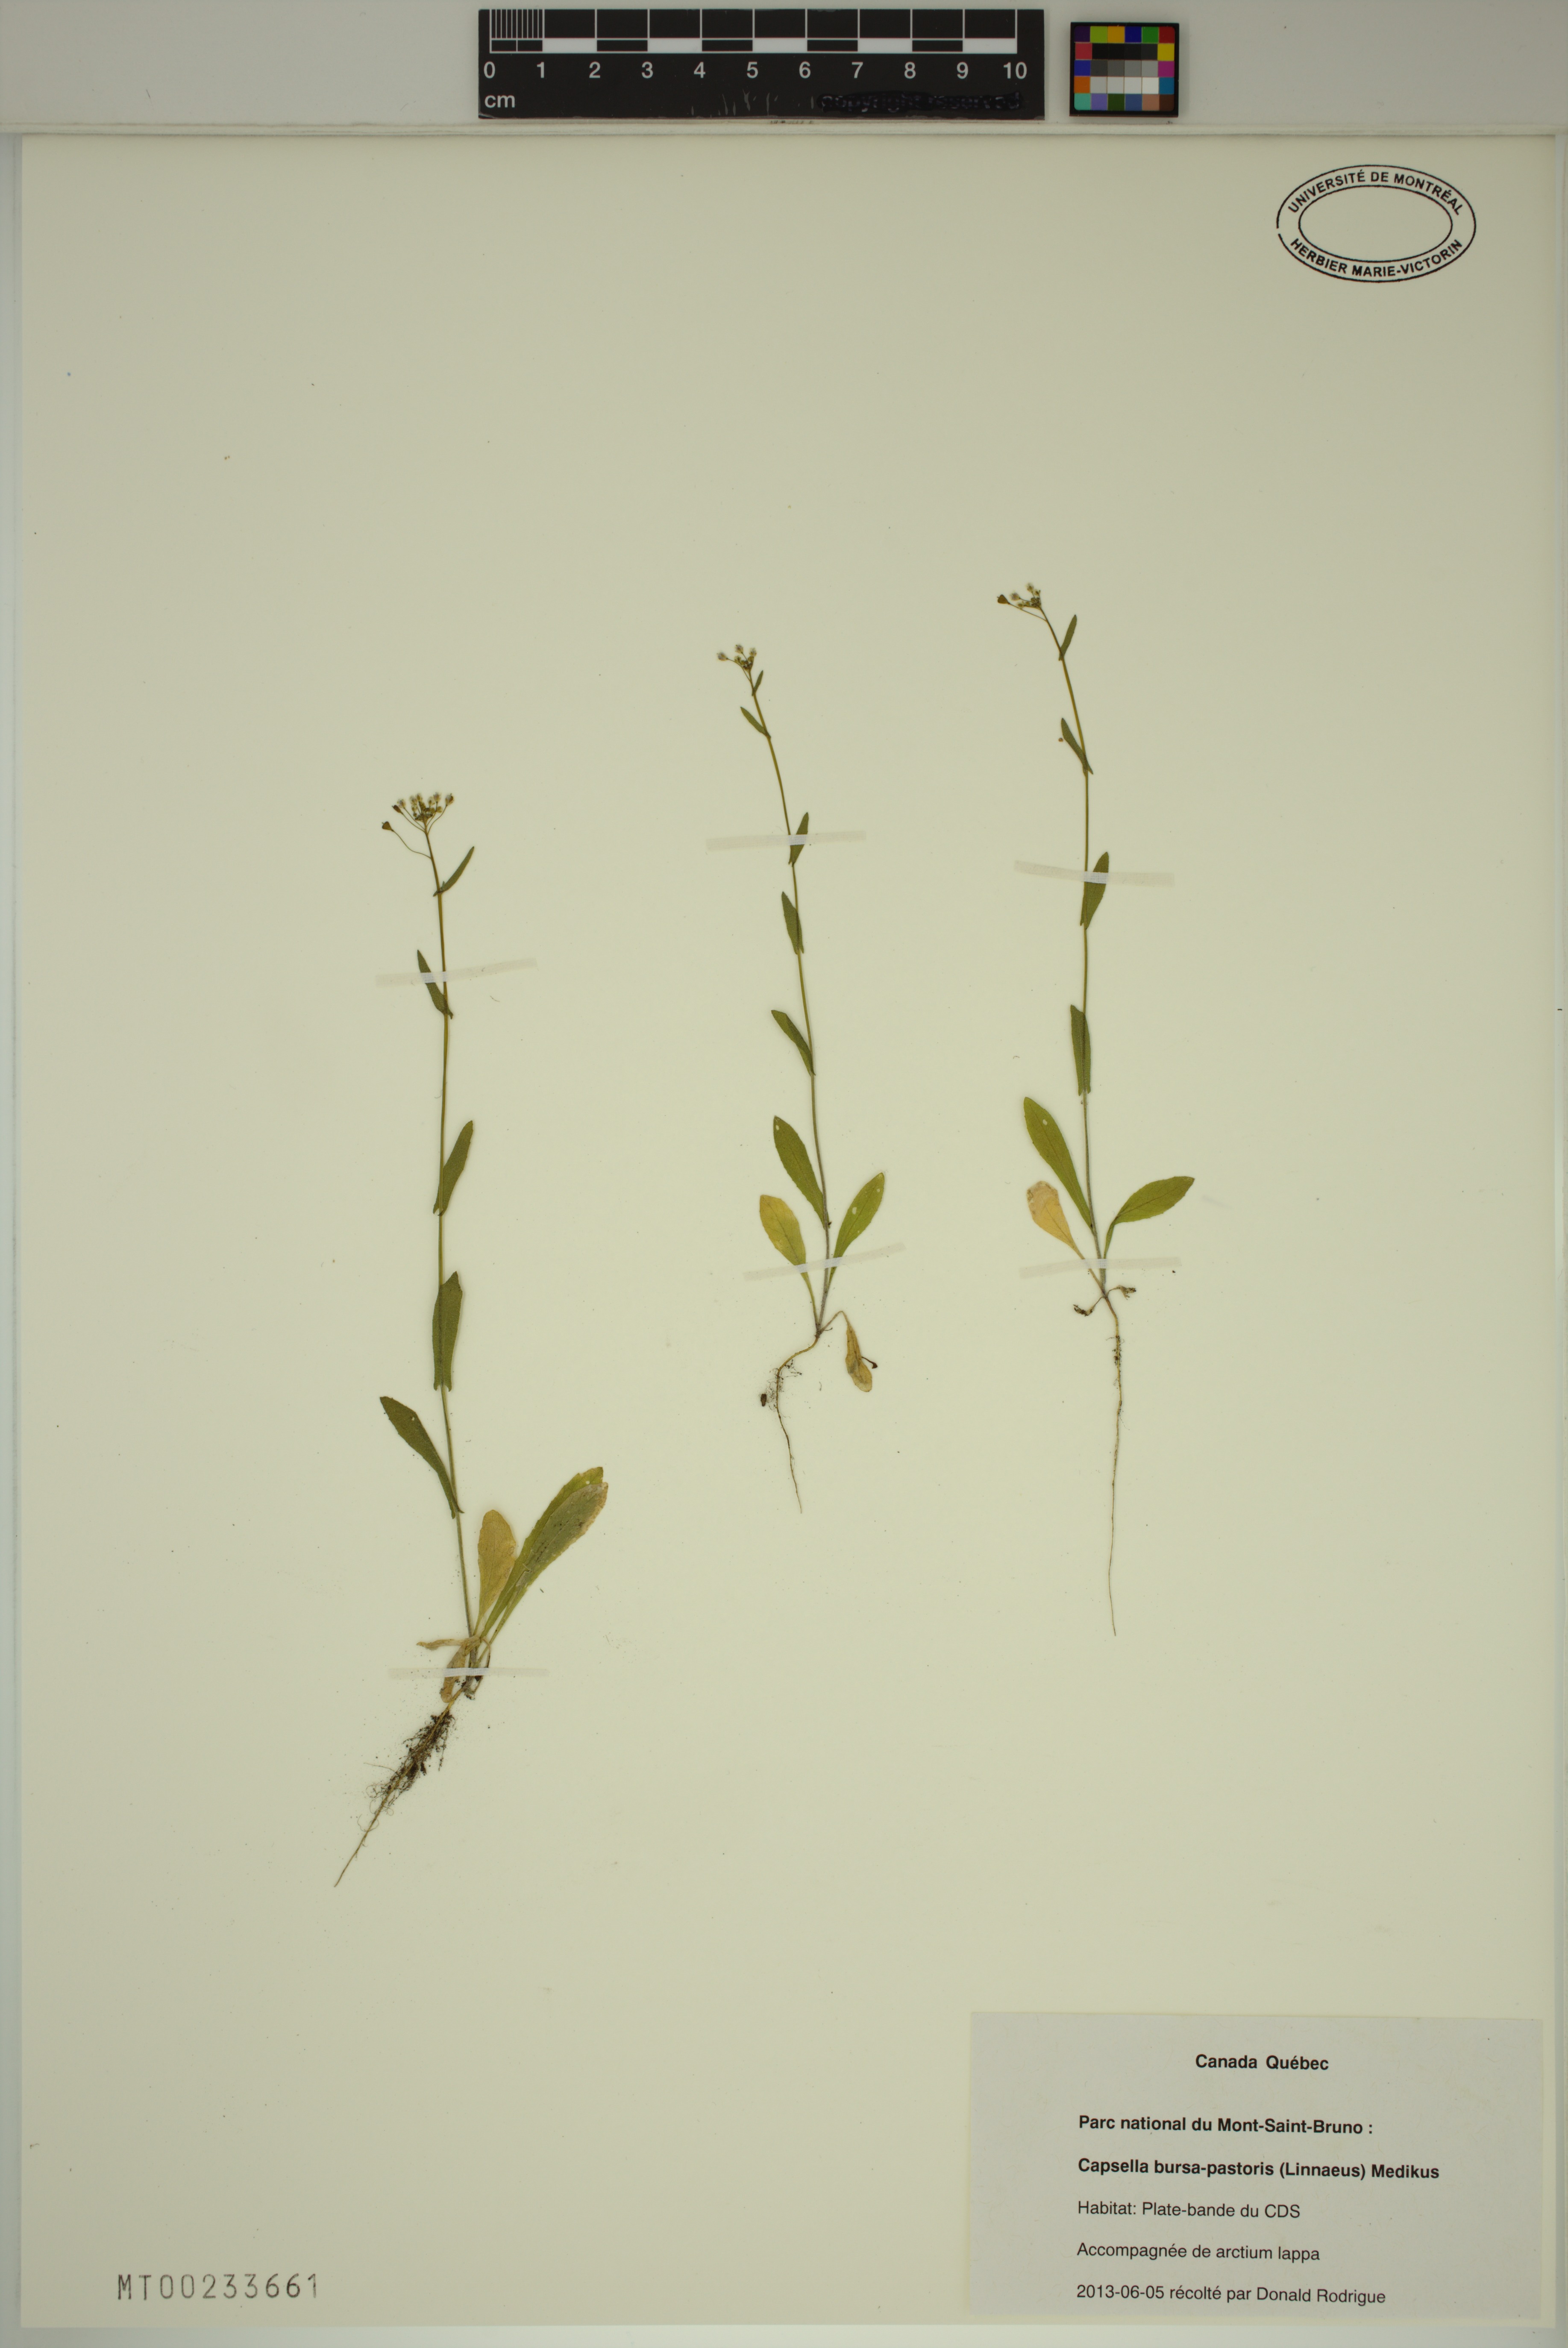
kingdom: Plantae
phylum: Tracheophyta
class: Magnoliopsida
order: Brassicales
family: Brassicaceae
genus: Capsella
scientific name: Capsella bursa-pastoris
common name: Shepherd's purse
